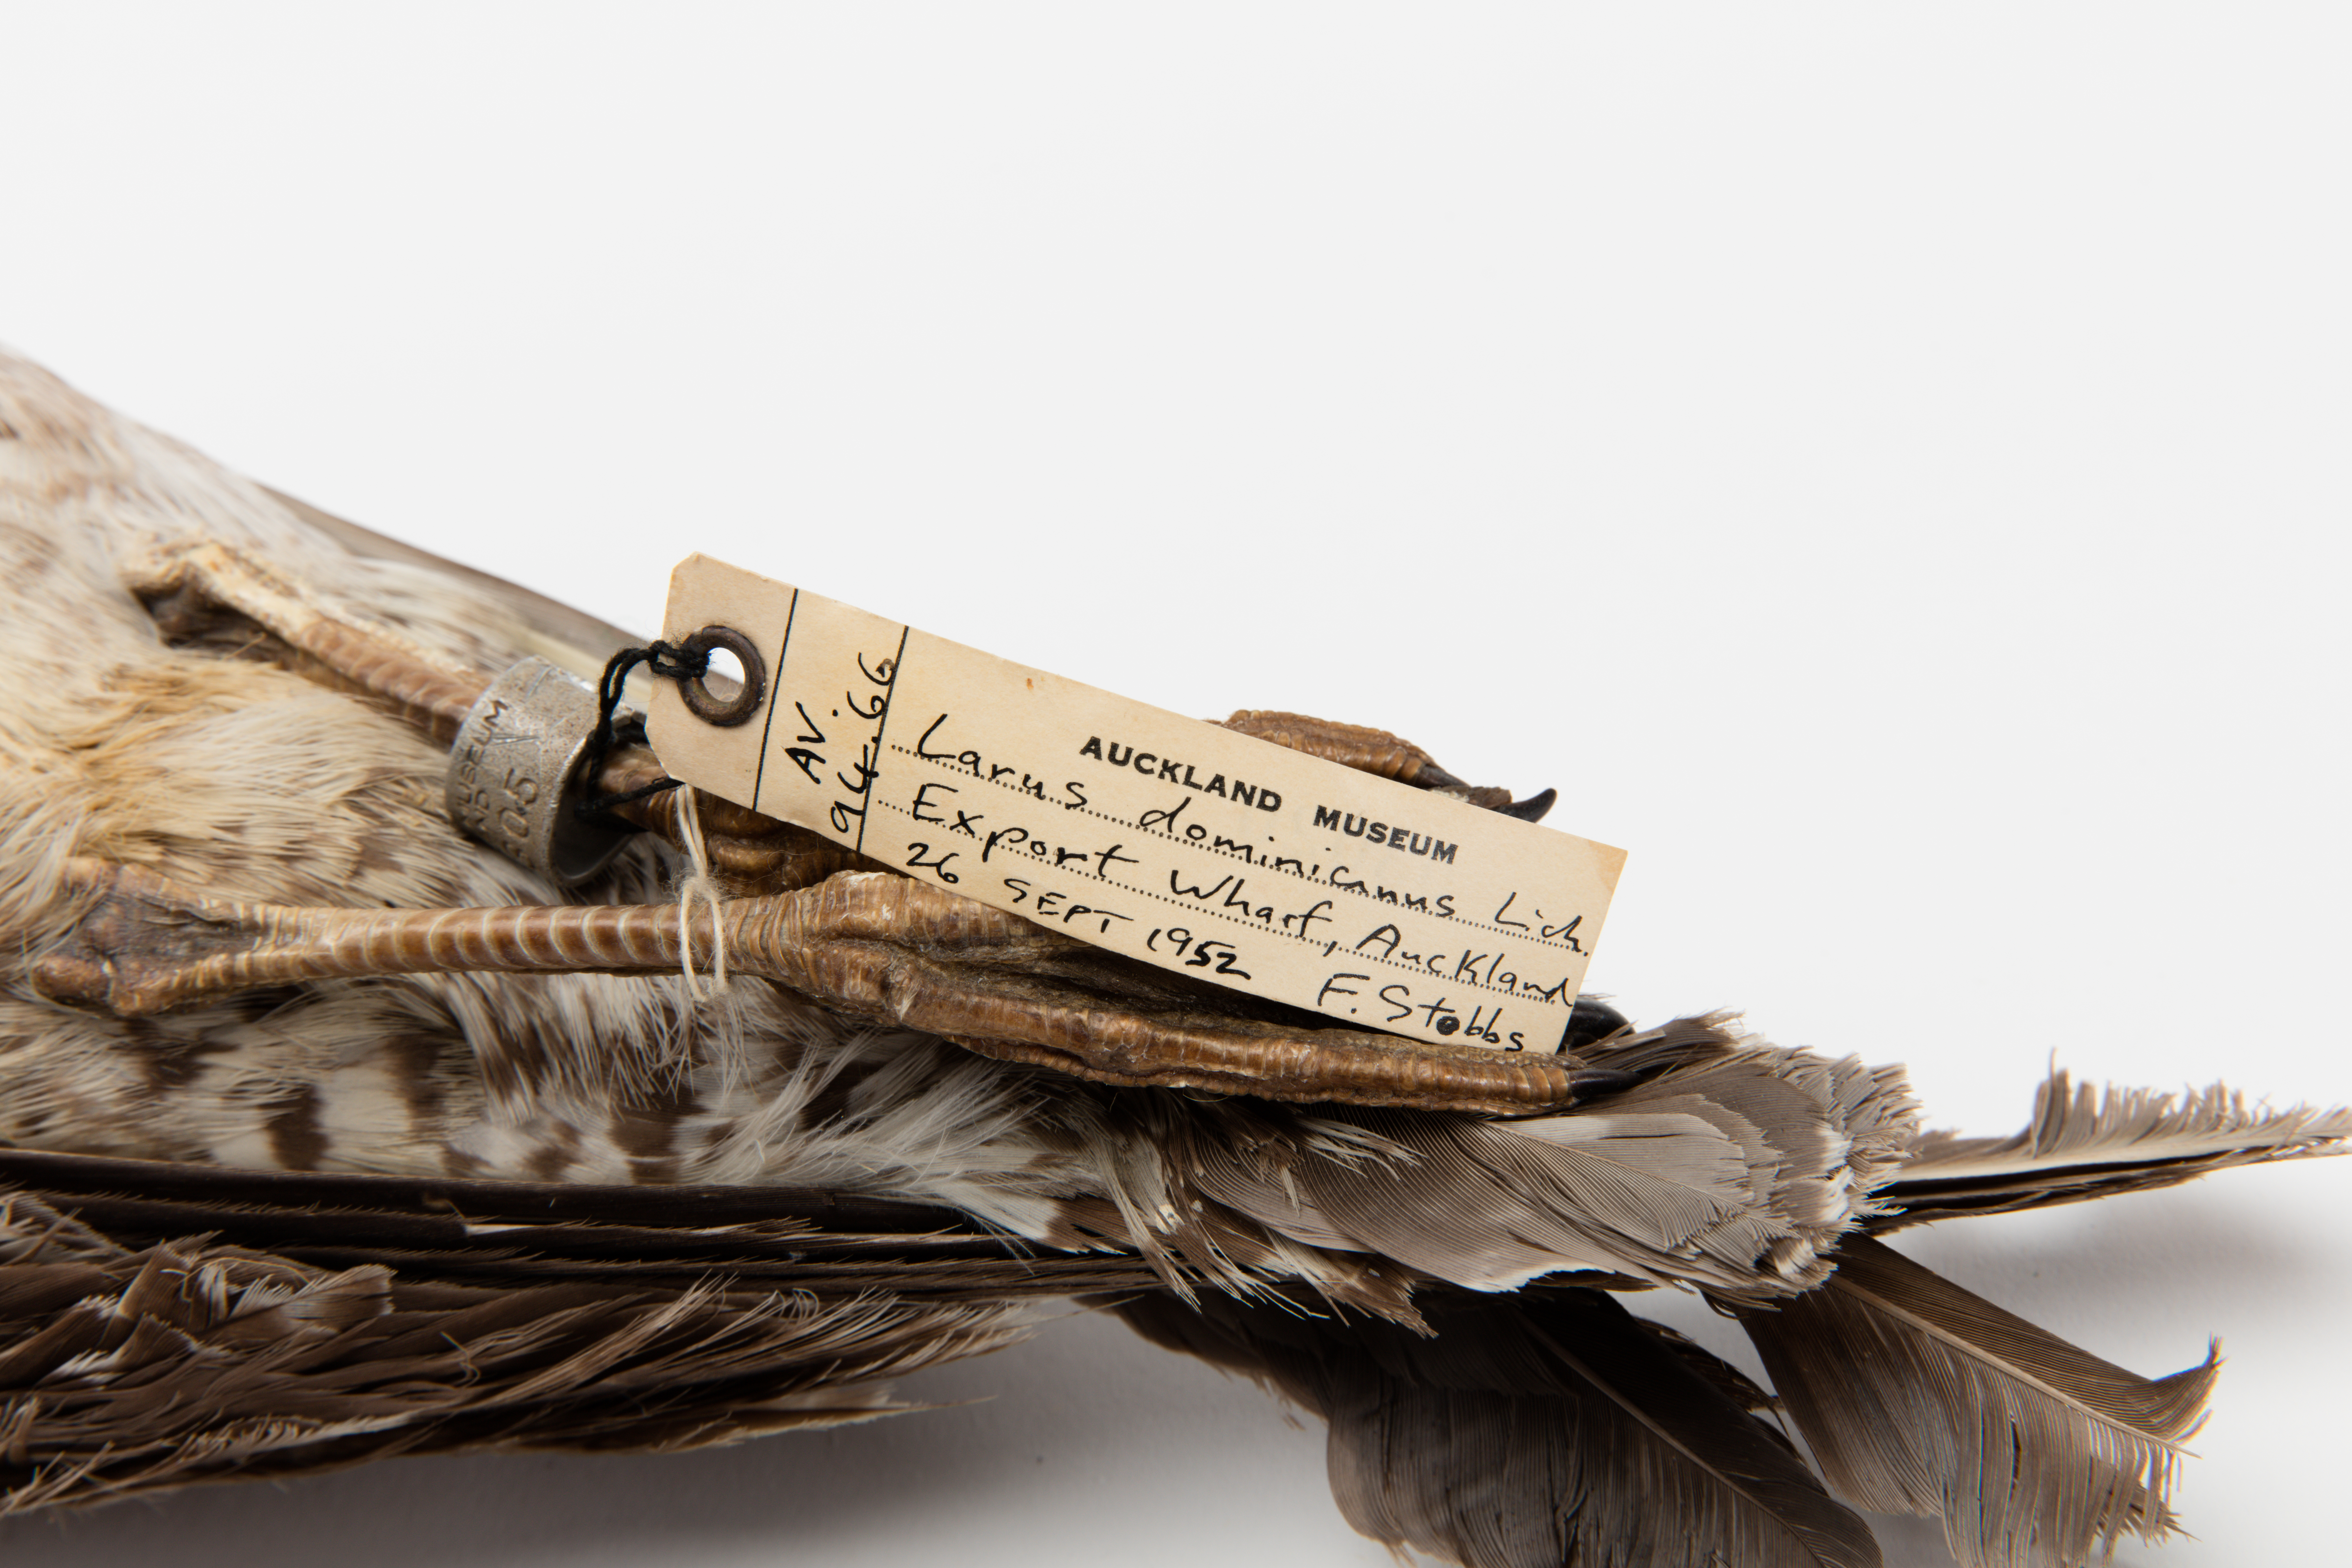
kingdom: Animalia
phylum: Chordata
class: Aves
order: Charadriiformes
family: Laridae
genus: Larus
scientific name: Larus dominicanus
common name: Kelp gull
